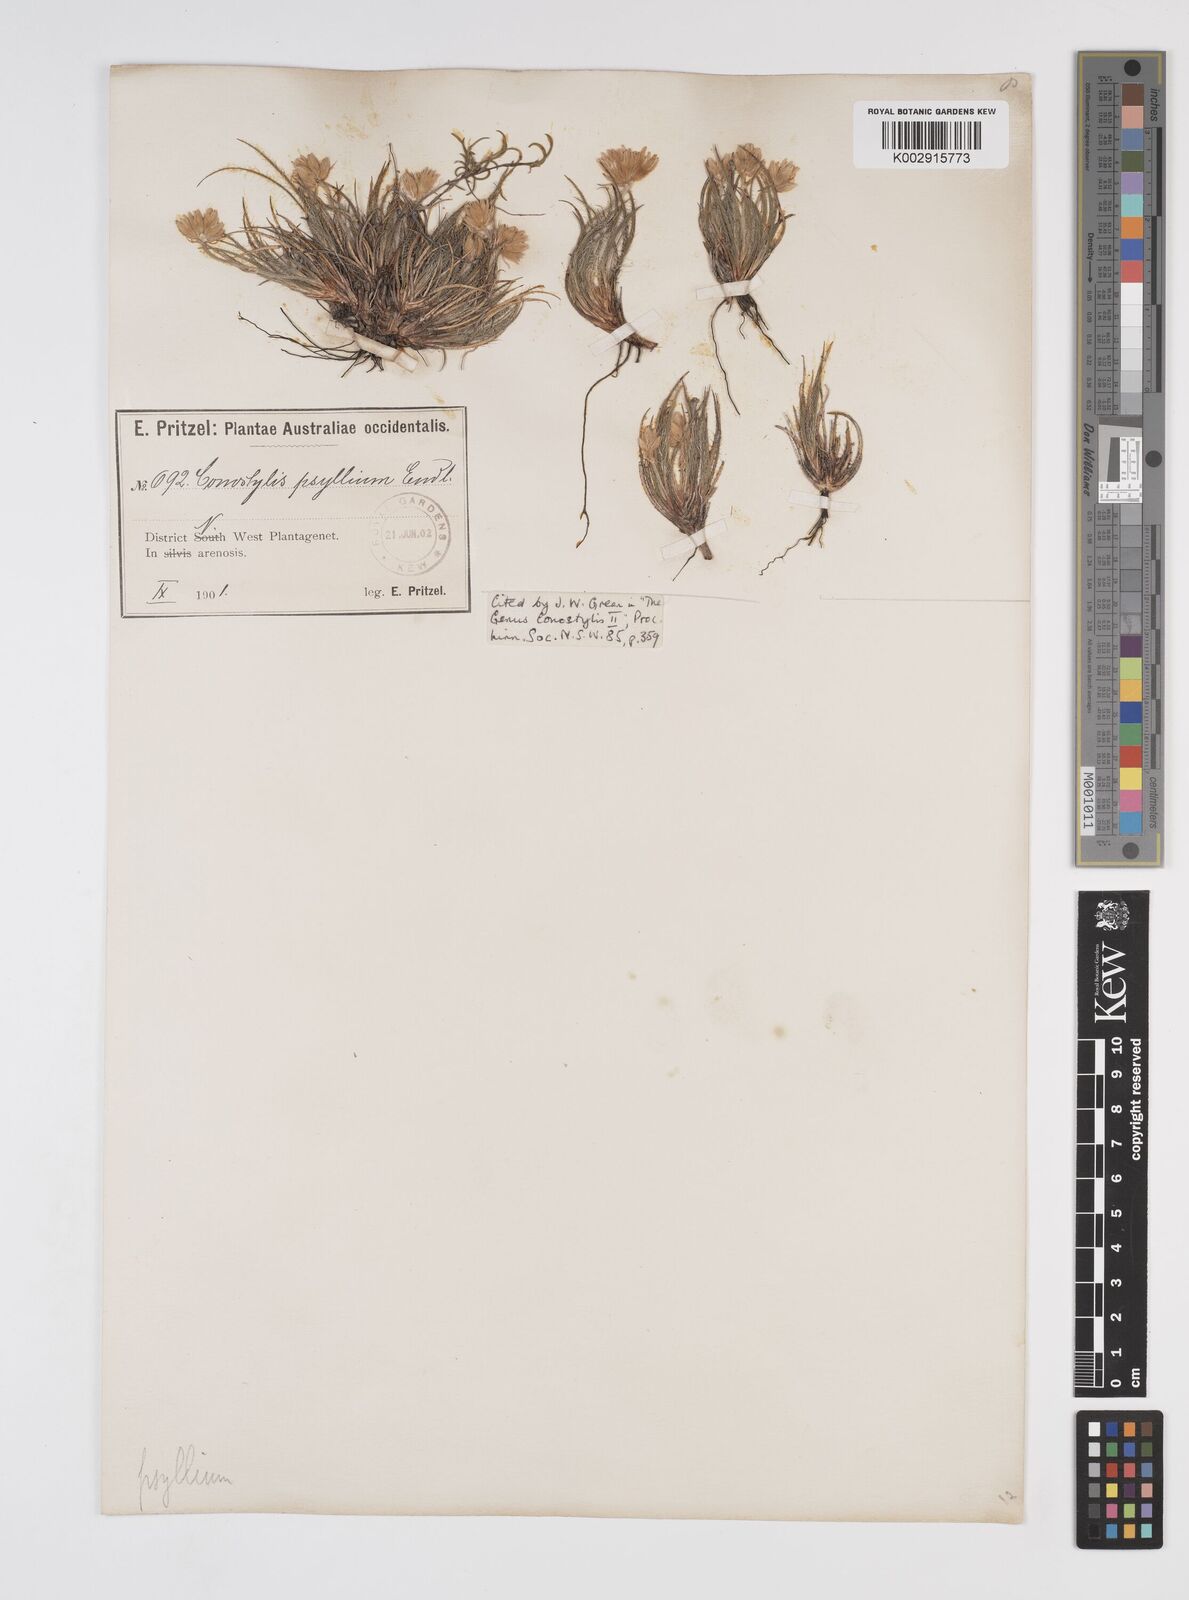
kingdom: Plantae
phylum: Tracheophyta
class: Liliopsida
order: Commelinales
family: Haemodoraceae
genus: Conostylis
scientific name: Conostylis setigera
